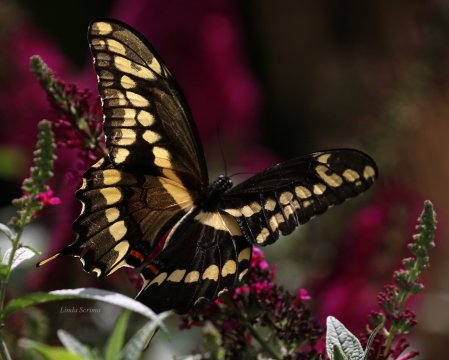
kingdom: Animalia
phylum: Arthropoda
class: Insecta
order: Lepidoptera
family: Papilionidae
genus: Papilio
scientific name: Papilio cresphontes
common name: Eastern Giant Swallowtail
